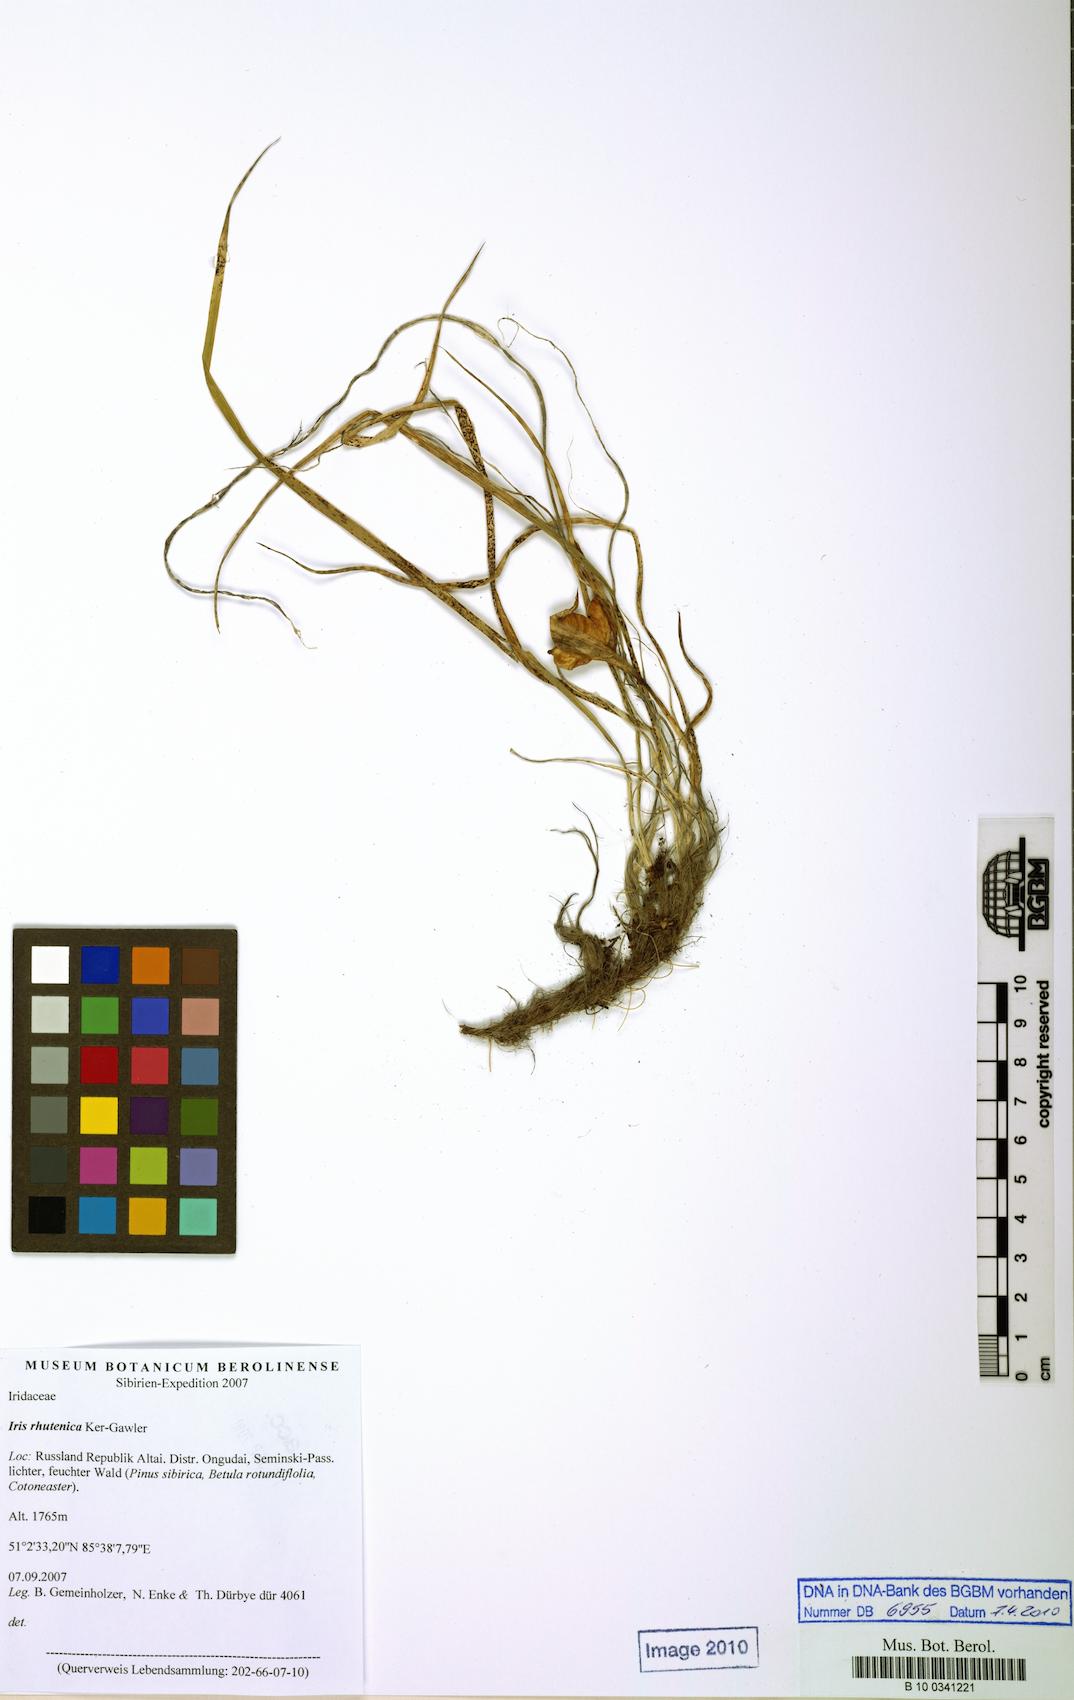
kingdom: Plantae
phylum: Tracheophyta
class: Liliopsida
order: Asparagales
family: Iridaceae
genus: Iris
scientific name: Iris ruthenica
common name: Purple-bract iris
